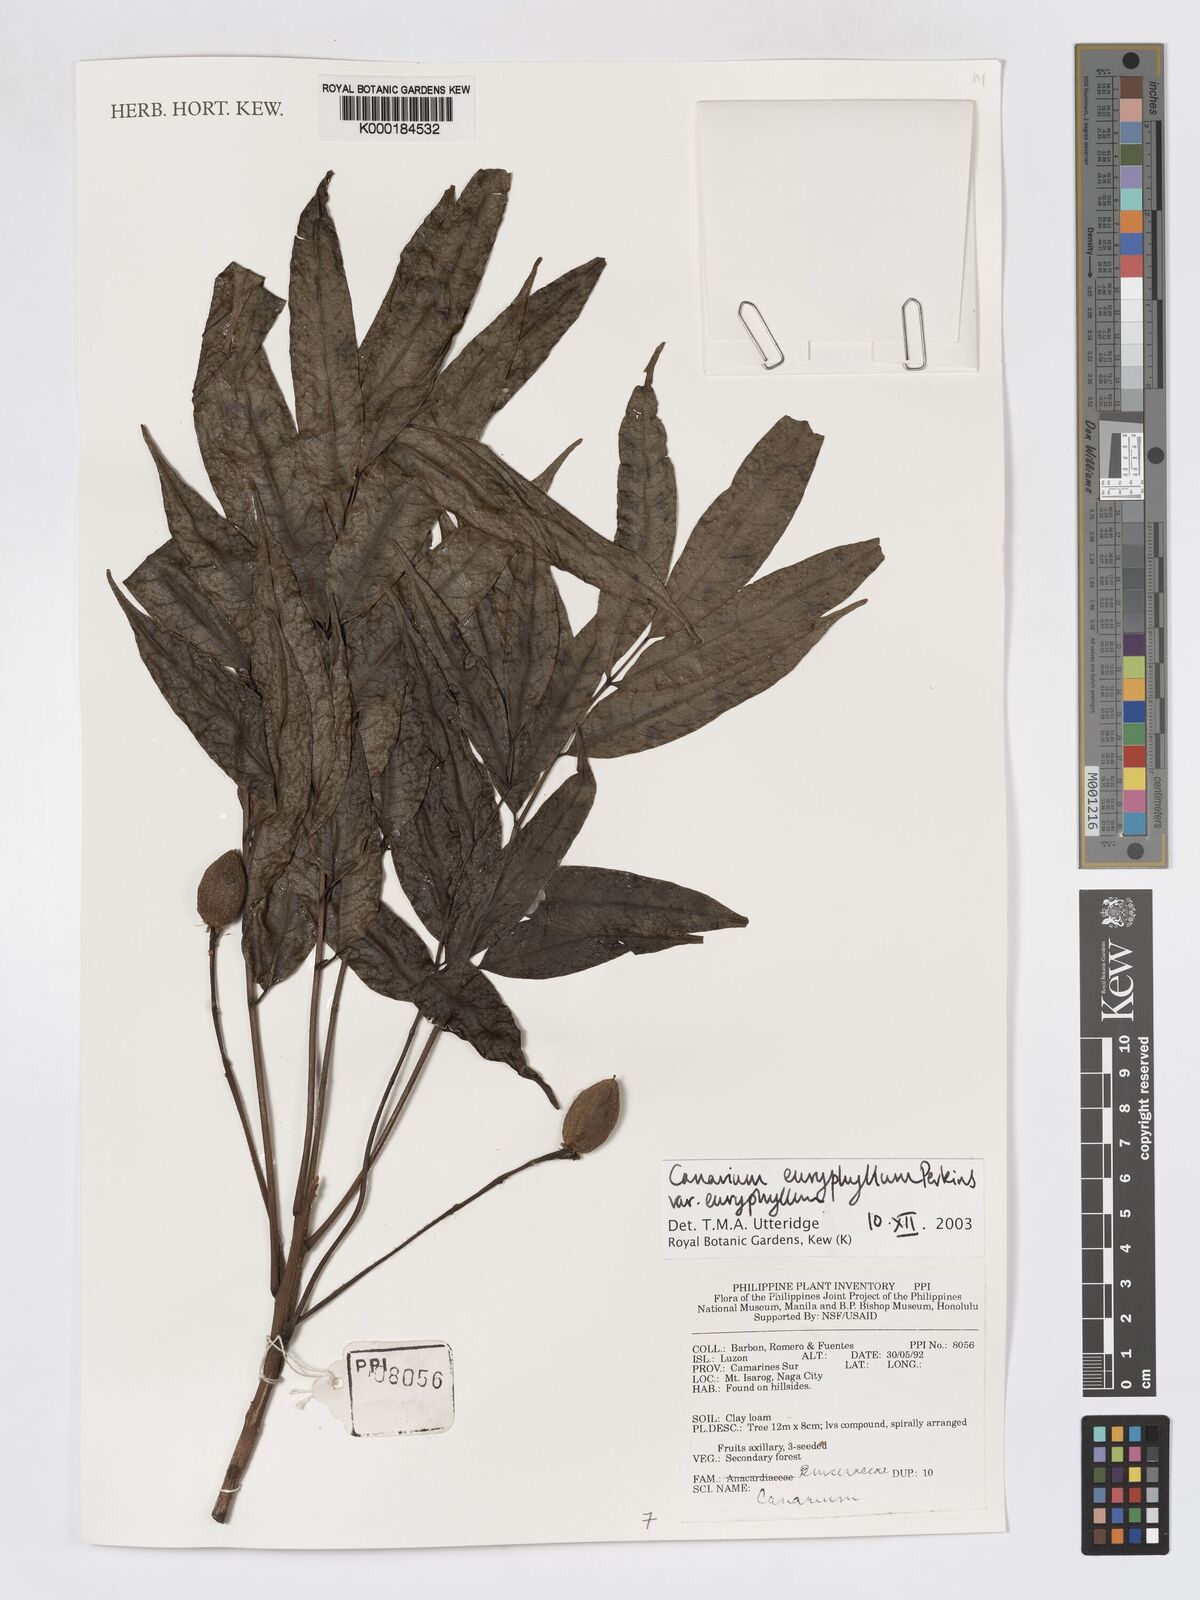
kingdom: Plantae
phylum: Tracheophyta
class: Magnoliopsida
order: Sapindales
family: Burseraceae
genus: Canarium
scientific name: Canarium euryphyllum
